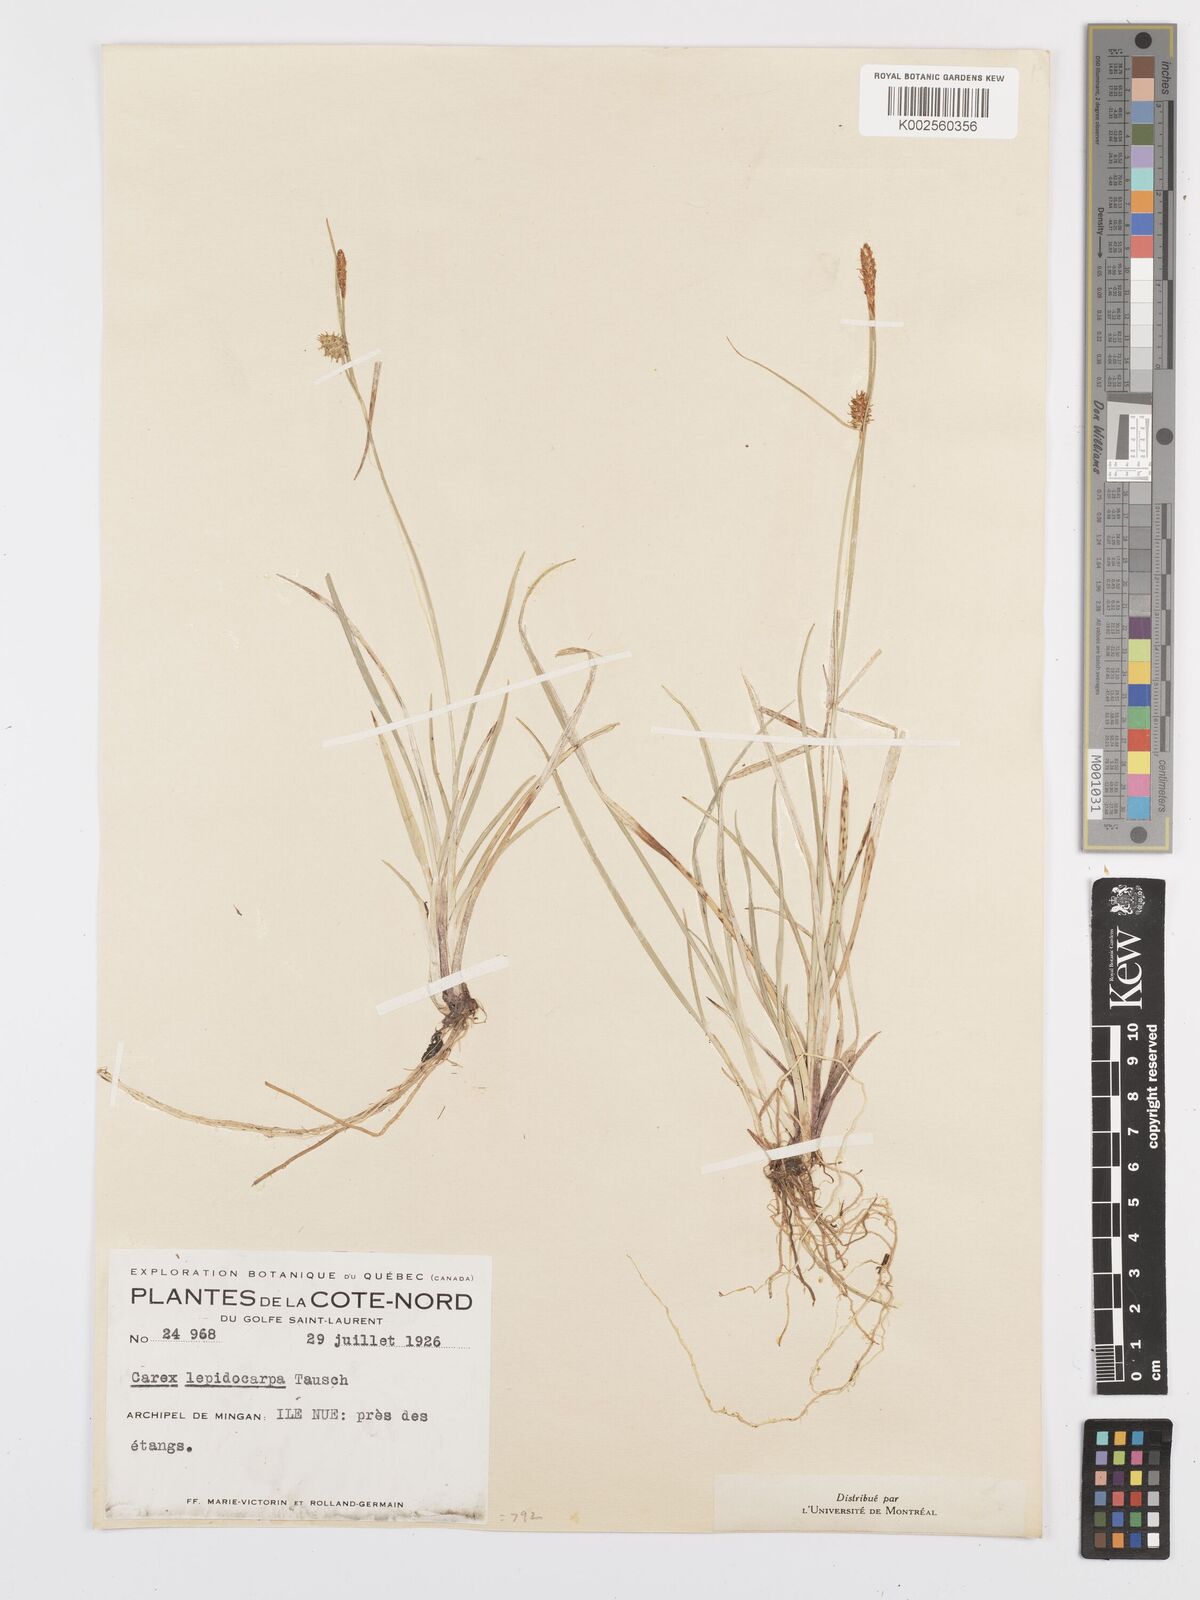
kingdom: Plantae
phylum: Tracheophyta
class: Liliopsida
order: Poales
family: Cyperaceae
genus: Carex
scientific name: Carex lepidocarpa
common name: Long-stalked yellow-sedge
